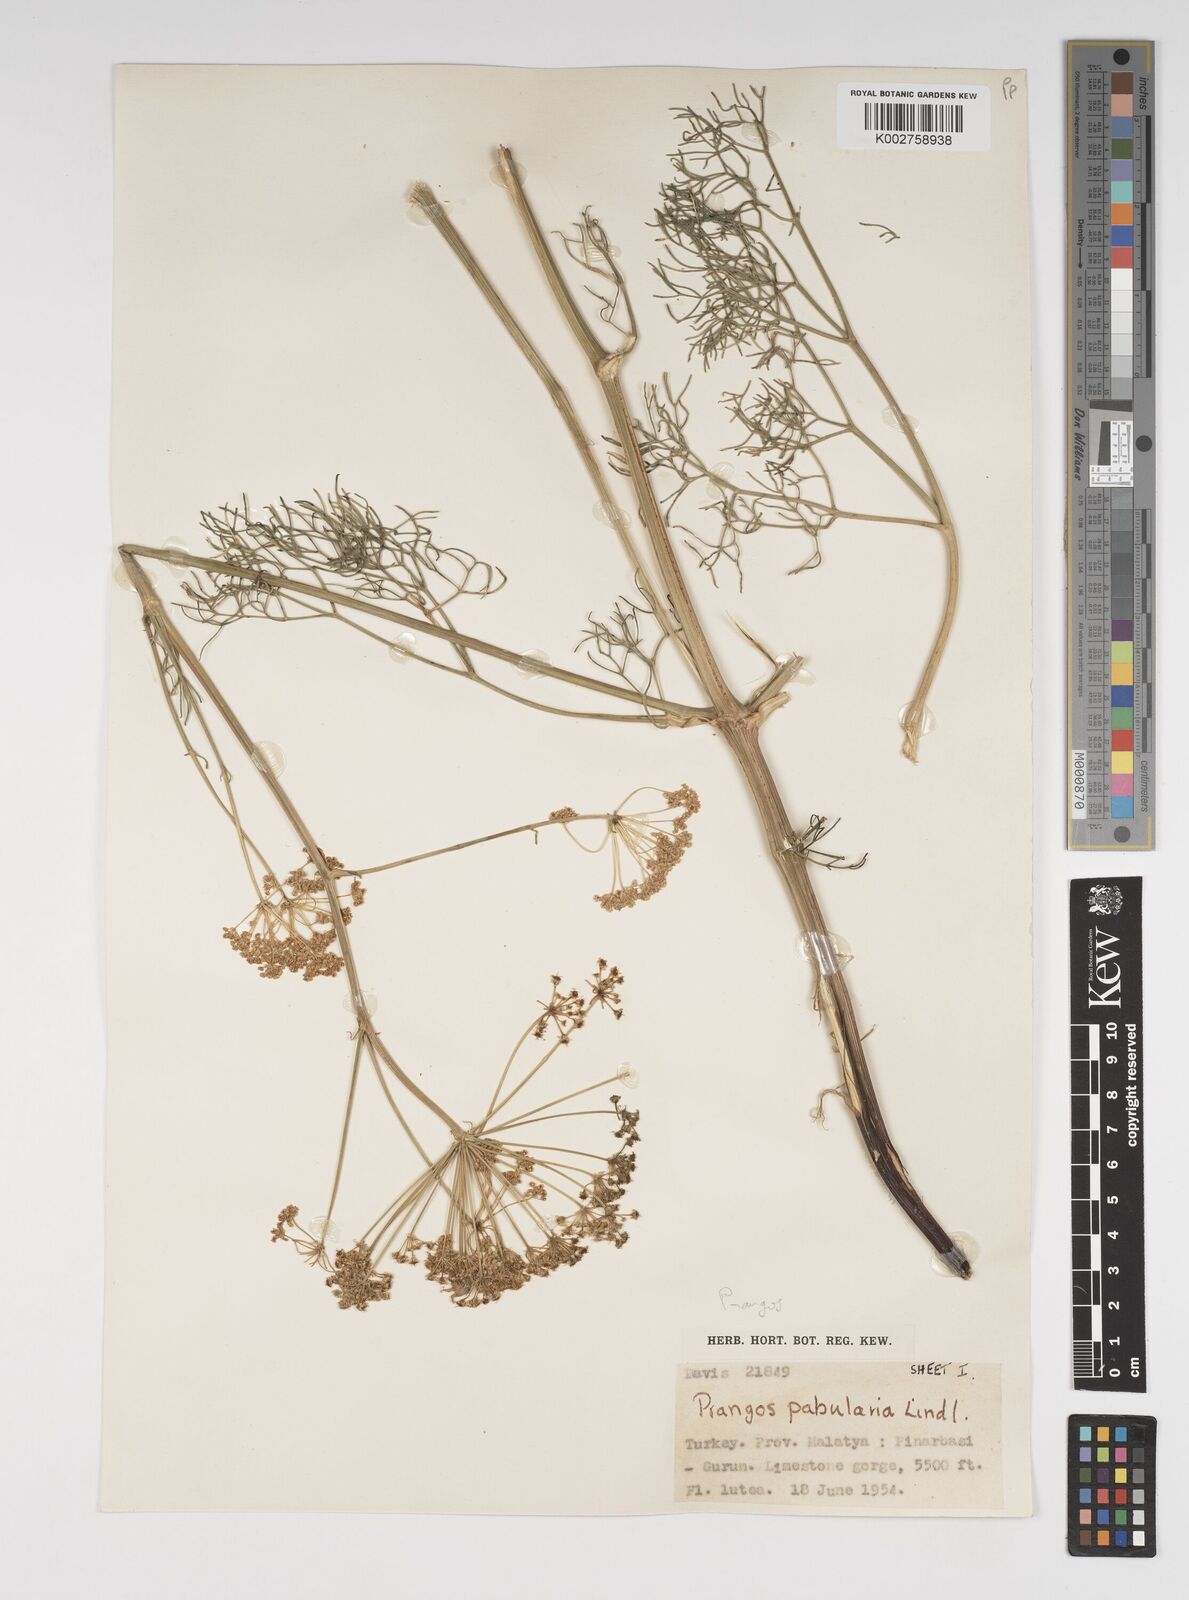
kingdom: Plantae
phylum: Tracheophyta
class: Magnoliopsida
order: Apiales
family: Apiaceae
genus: Prangos
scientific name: Prangos pabularia
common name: Yugan
